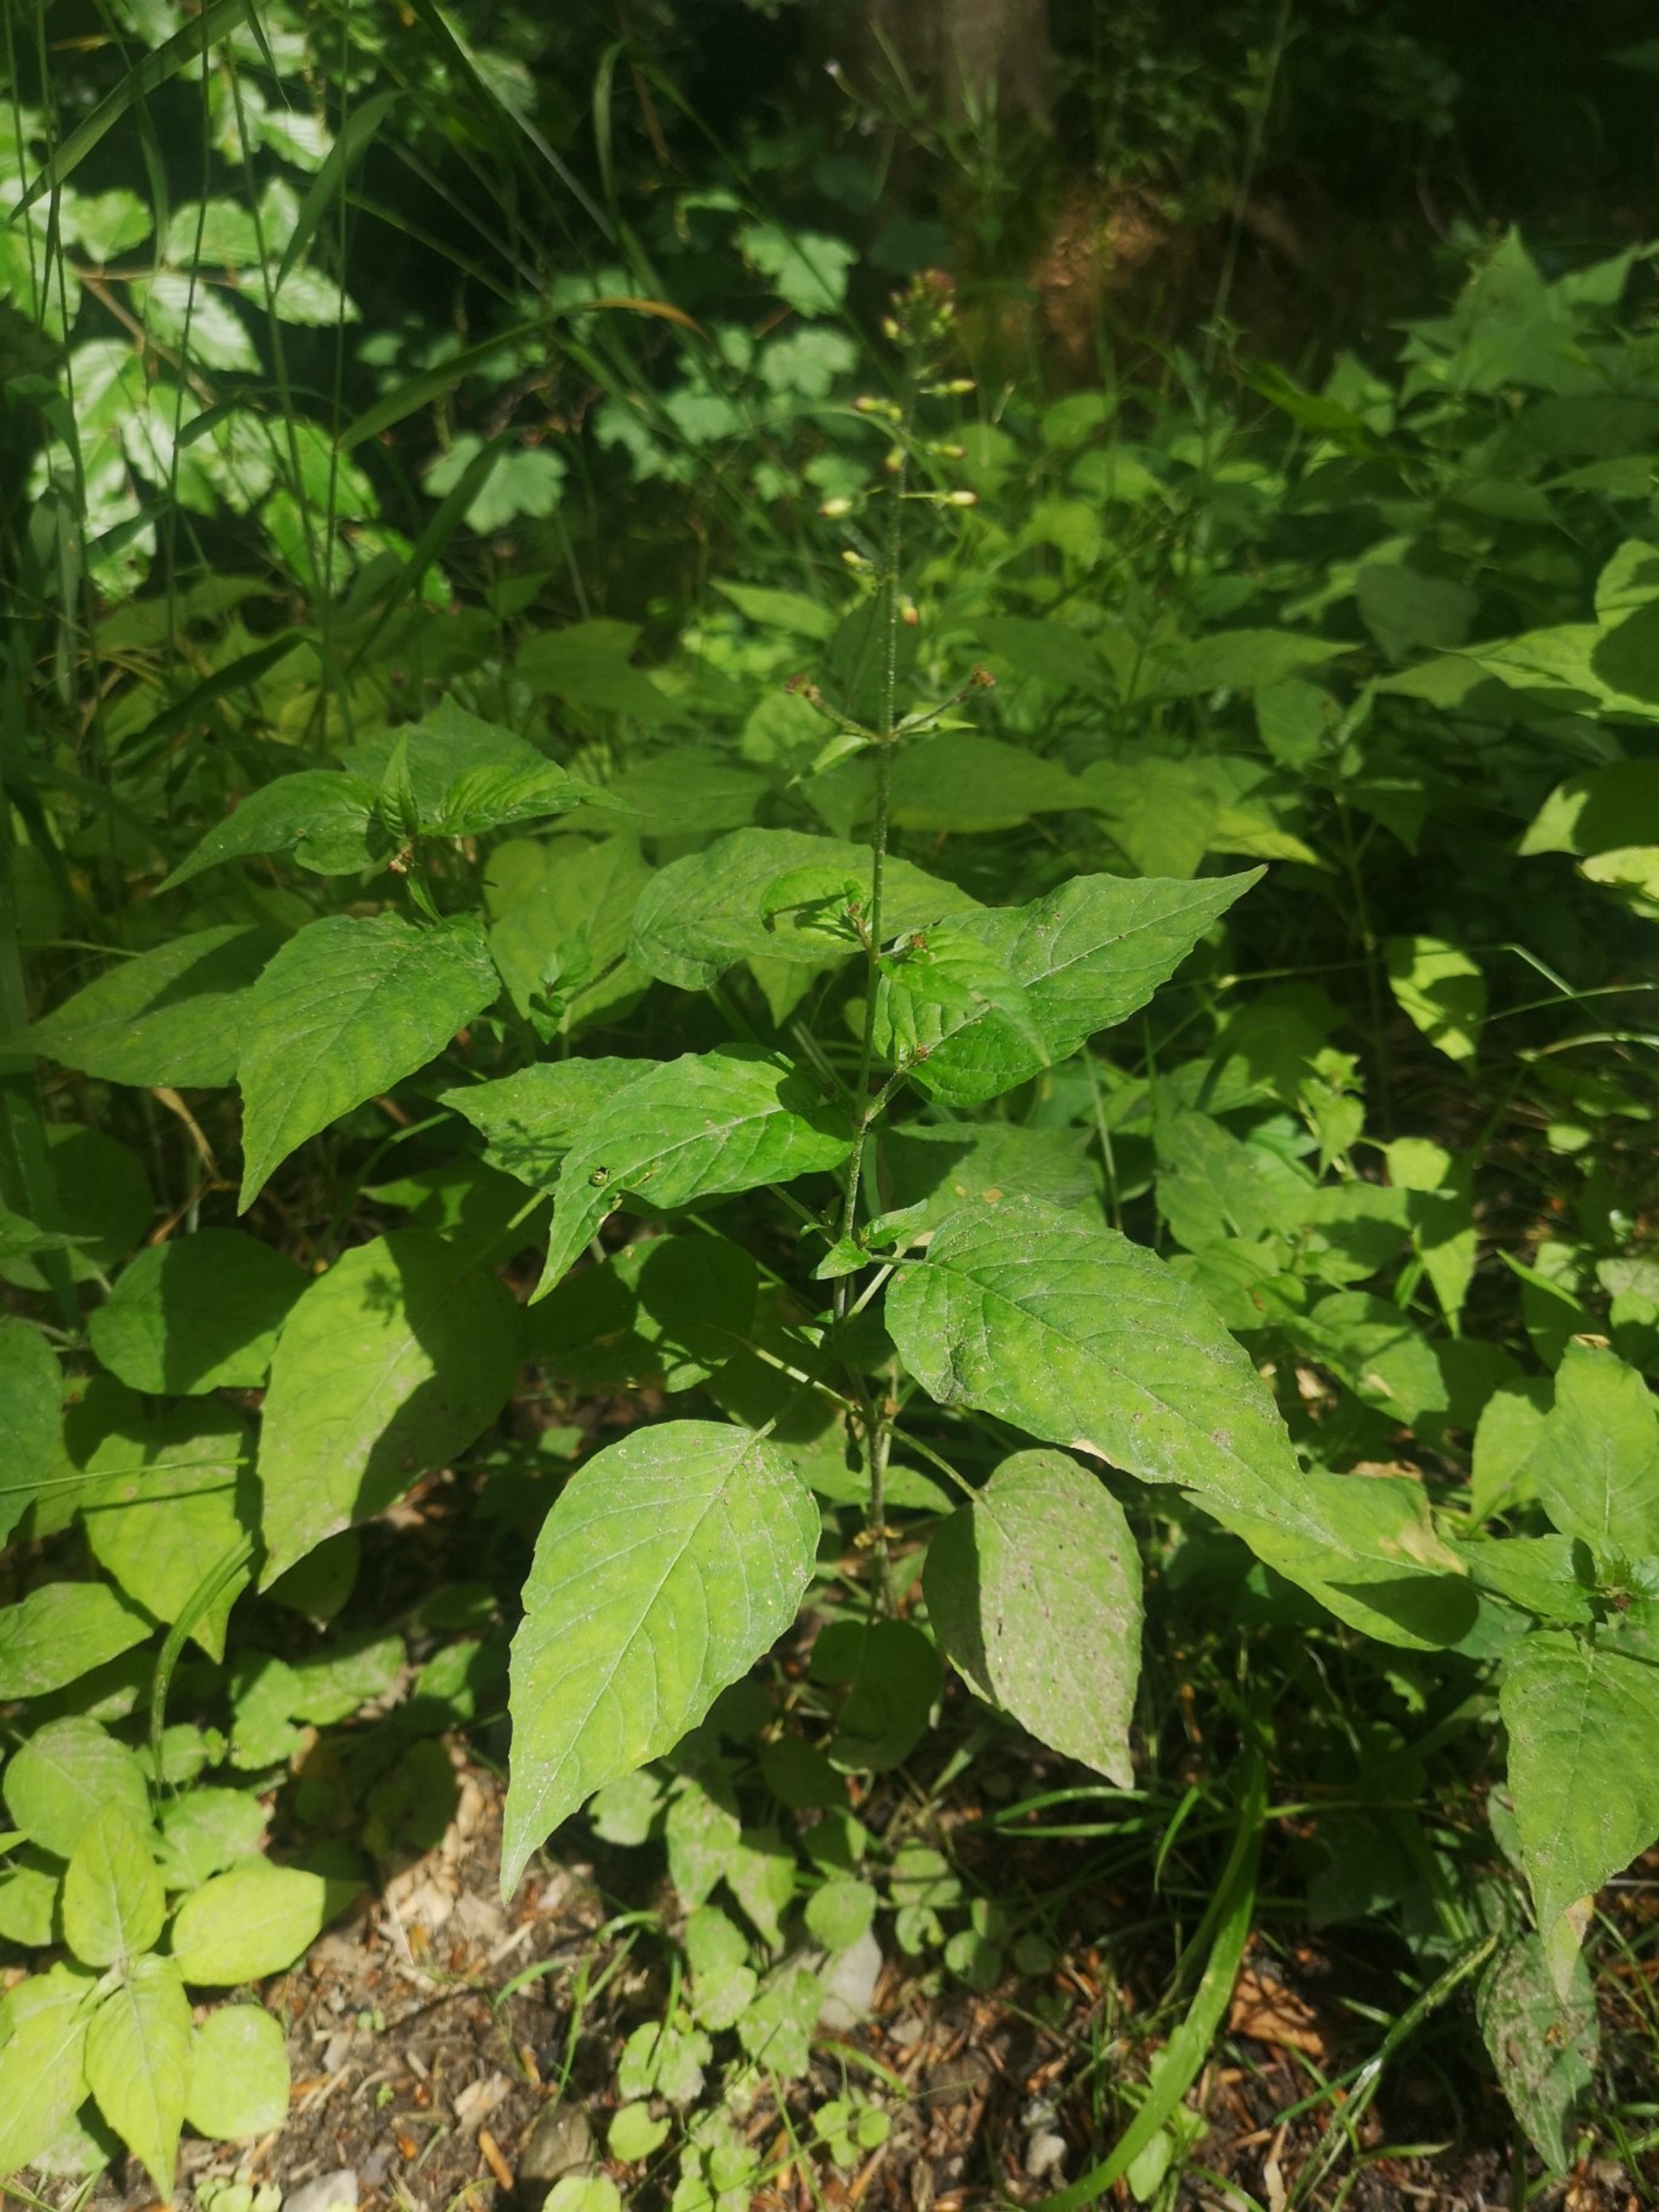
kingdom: Plantae
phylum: Tracheophyta
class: Magnoliopsida
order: Myrtales
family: Onagraceae
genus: Circaea
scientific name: Circaea lutetiana
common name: Dunet steffensurt
